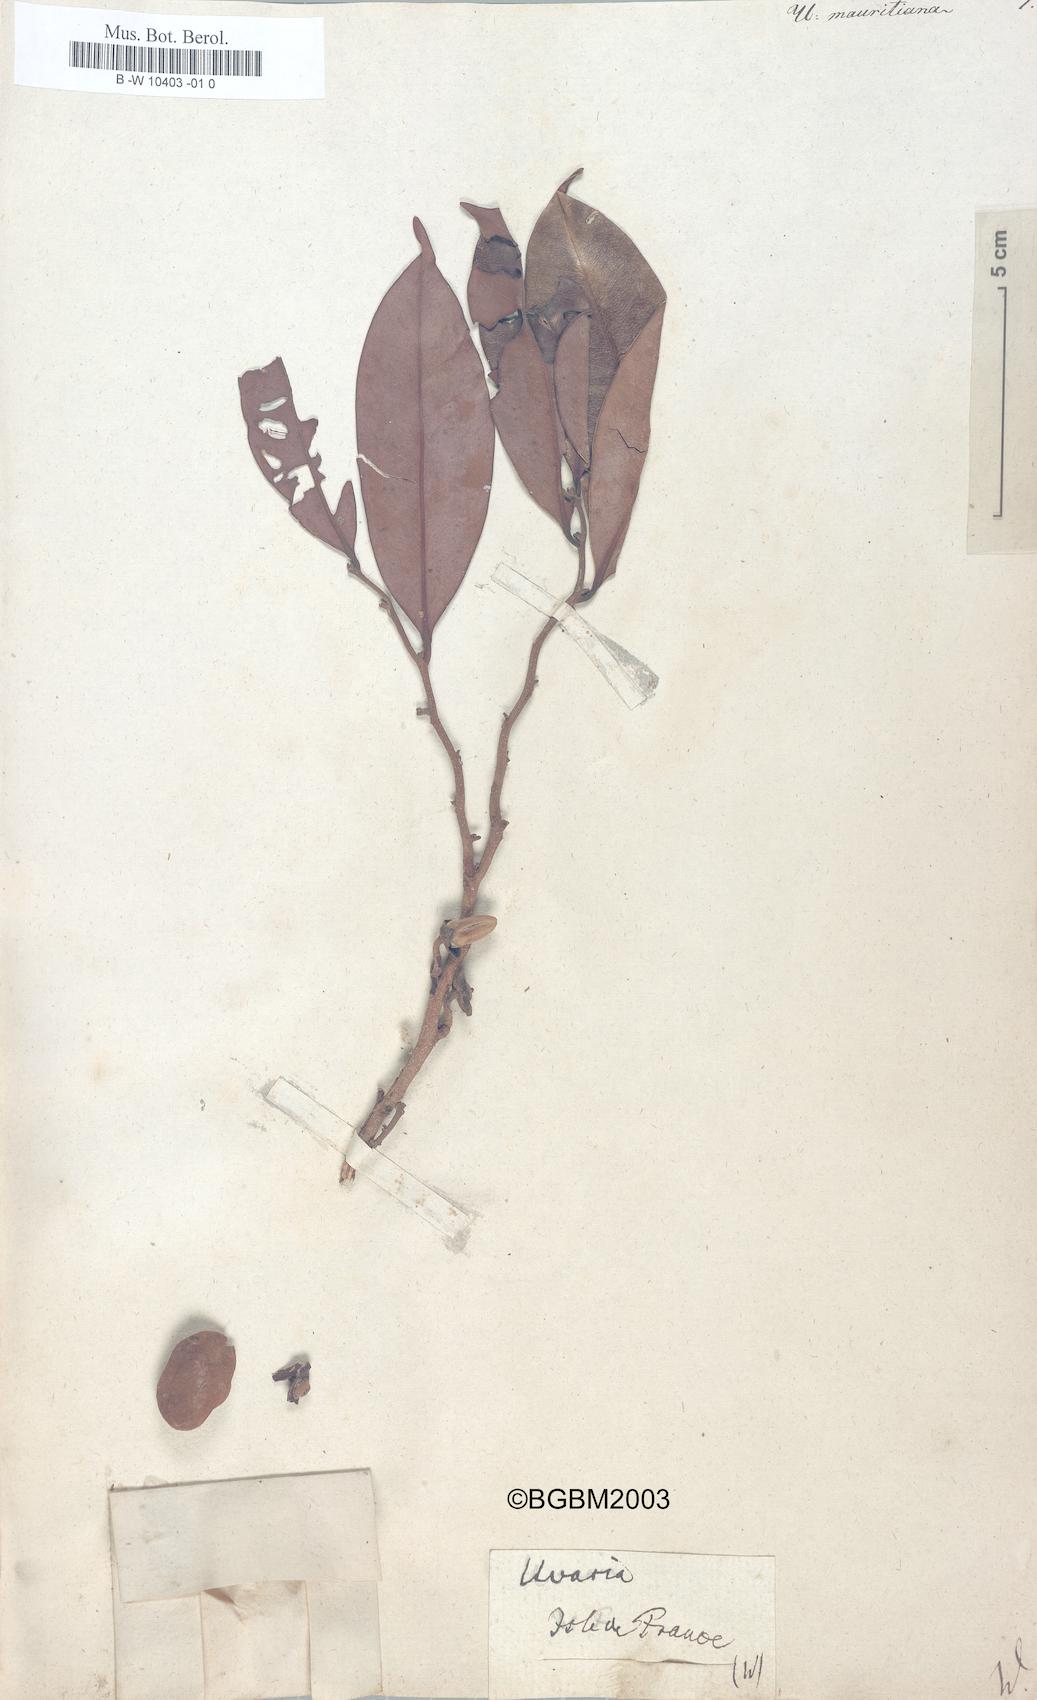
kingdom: Plantae
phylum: Tracheophyta
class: Magnoliopsida
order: Magnoliales
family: Annonaceae
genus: Uvaria
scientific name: Uvaria
